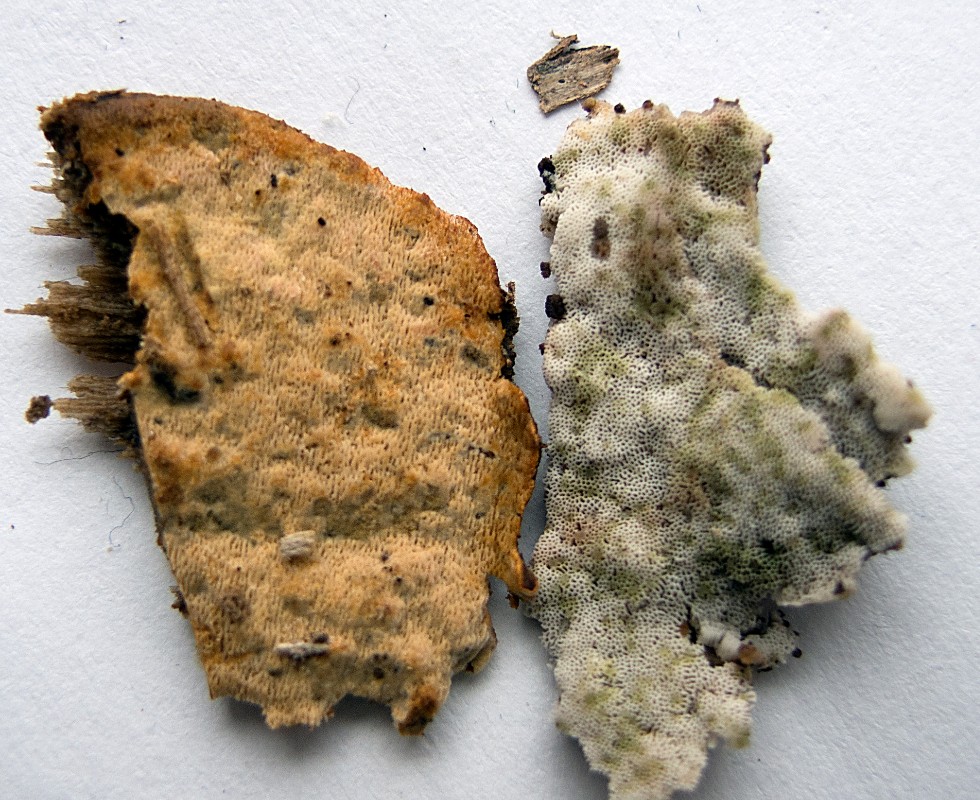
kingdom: Fungi
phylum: Basidiomycota
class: Agaricomycetes
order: Polyporales
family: Irpicaceae
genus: Ceriporia
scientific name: Ceriporia viridans
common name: foranderlig voksporesvamp
